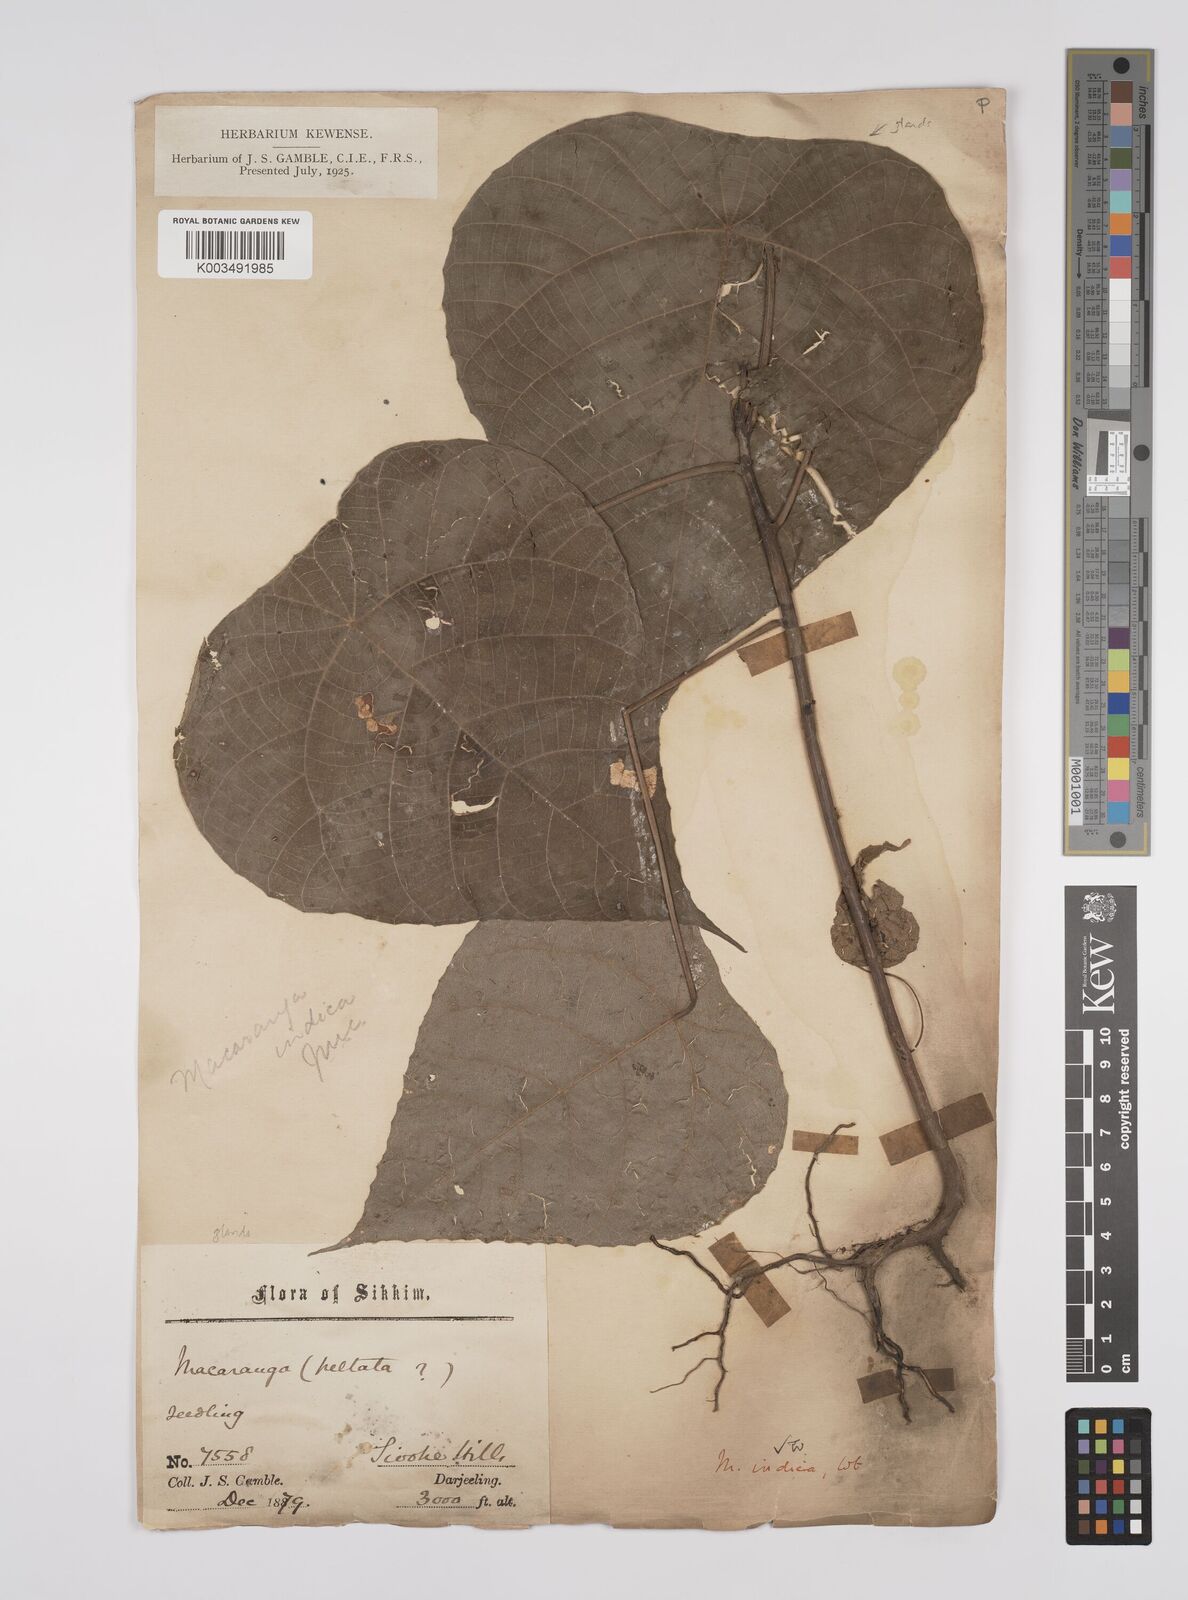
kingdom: Plantae
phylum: Tracheophyta
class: Magnoliopsida
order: Malpighiales
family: Euphorbiaceae
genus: Macaranga
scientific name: Macaranga indica
